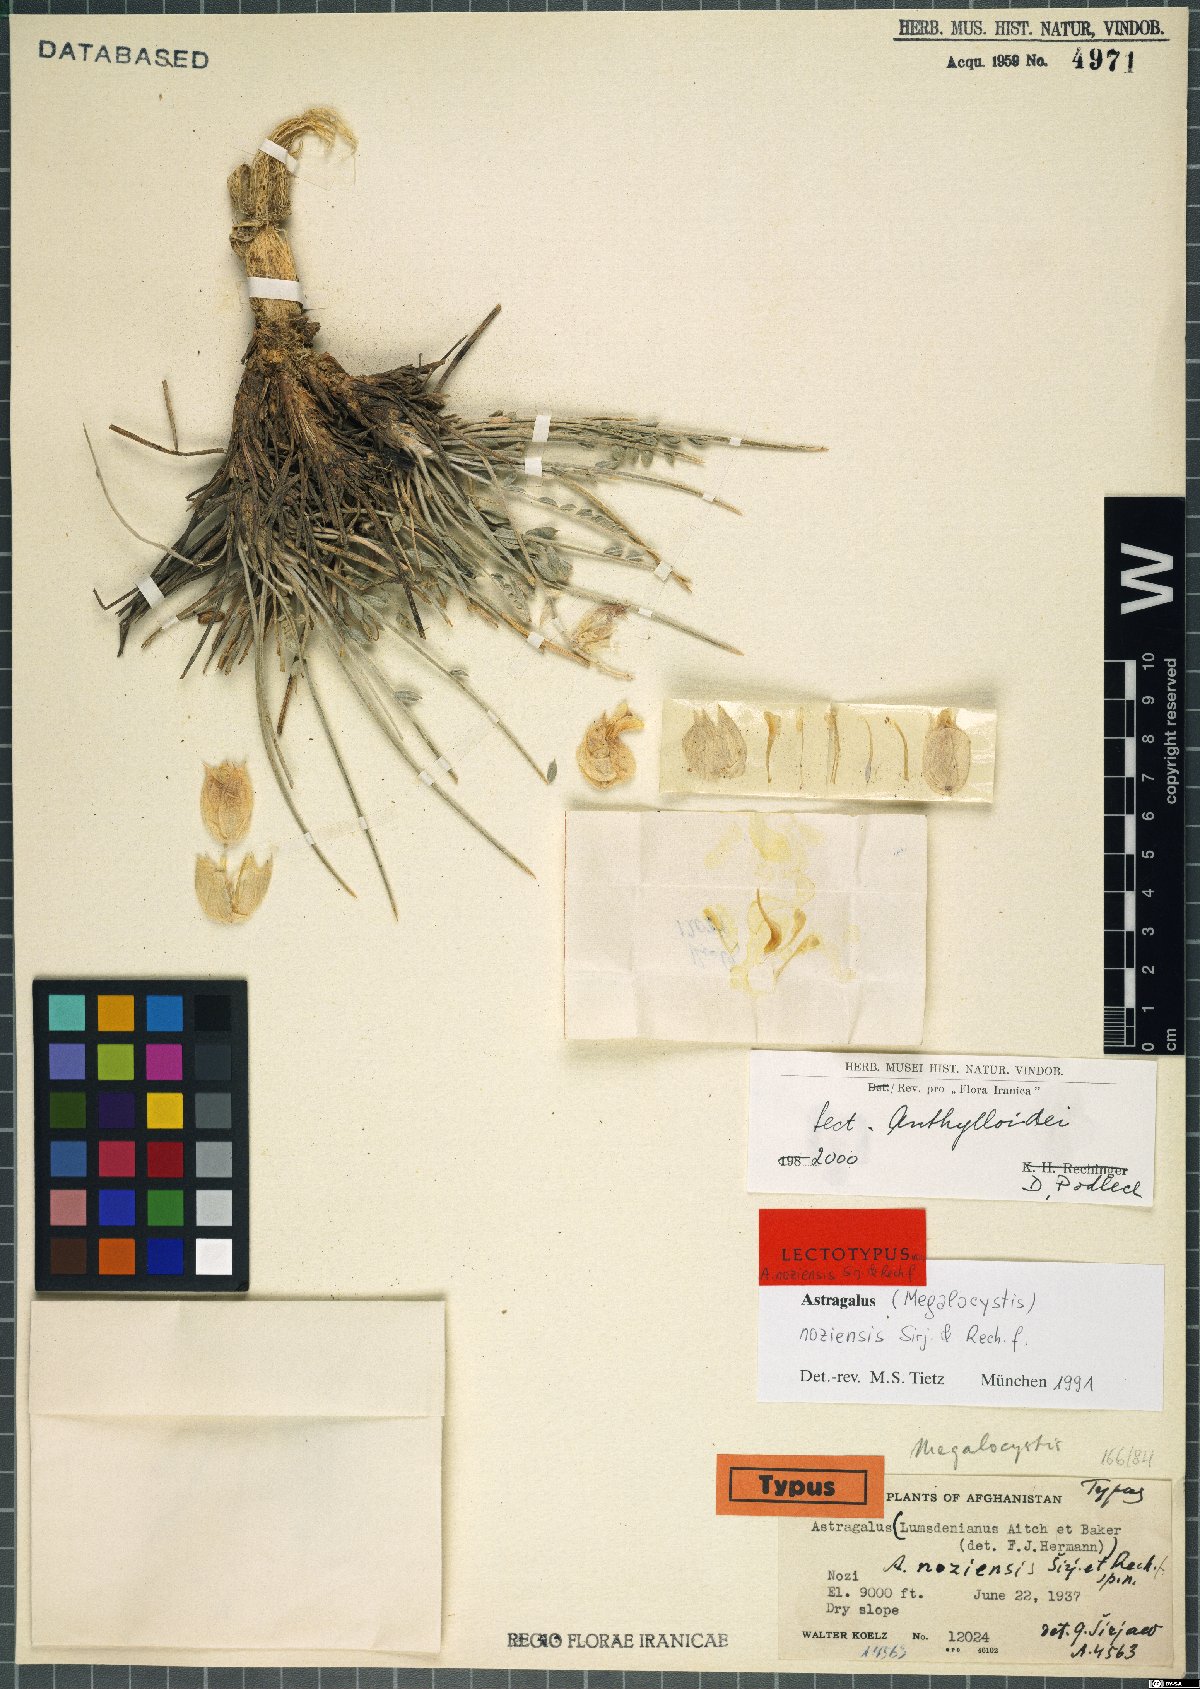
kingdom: Plantae
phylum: Tracheophyta
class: Magnoliopsida
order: Fabales
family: Fabaceae
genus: Astragalus
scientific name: Astragalus crassispinus
